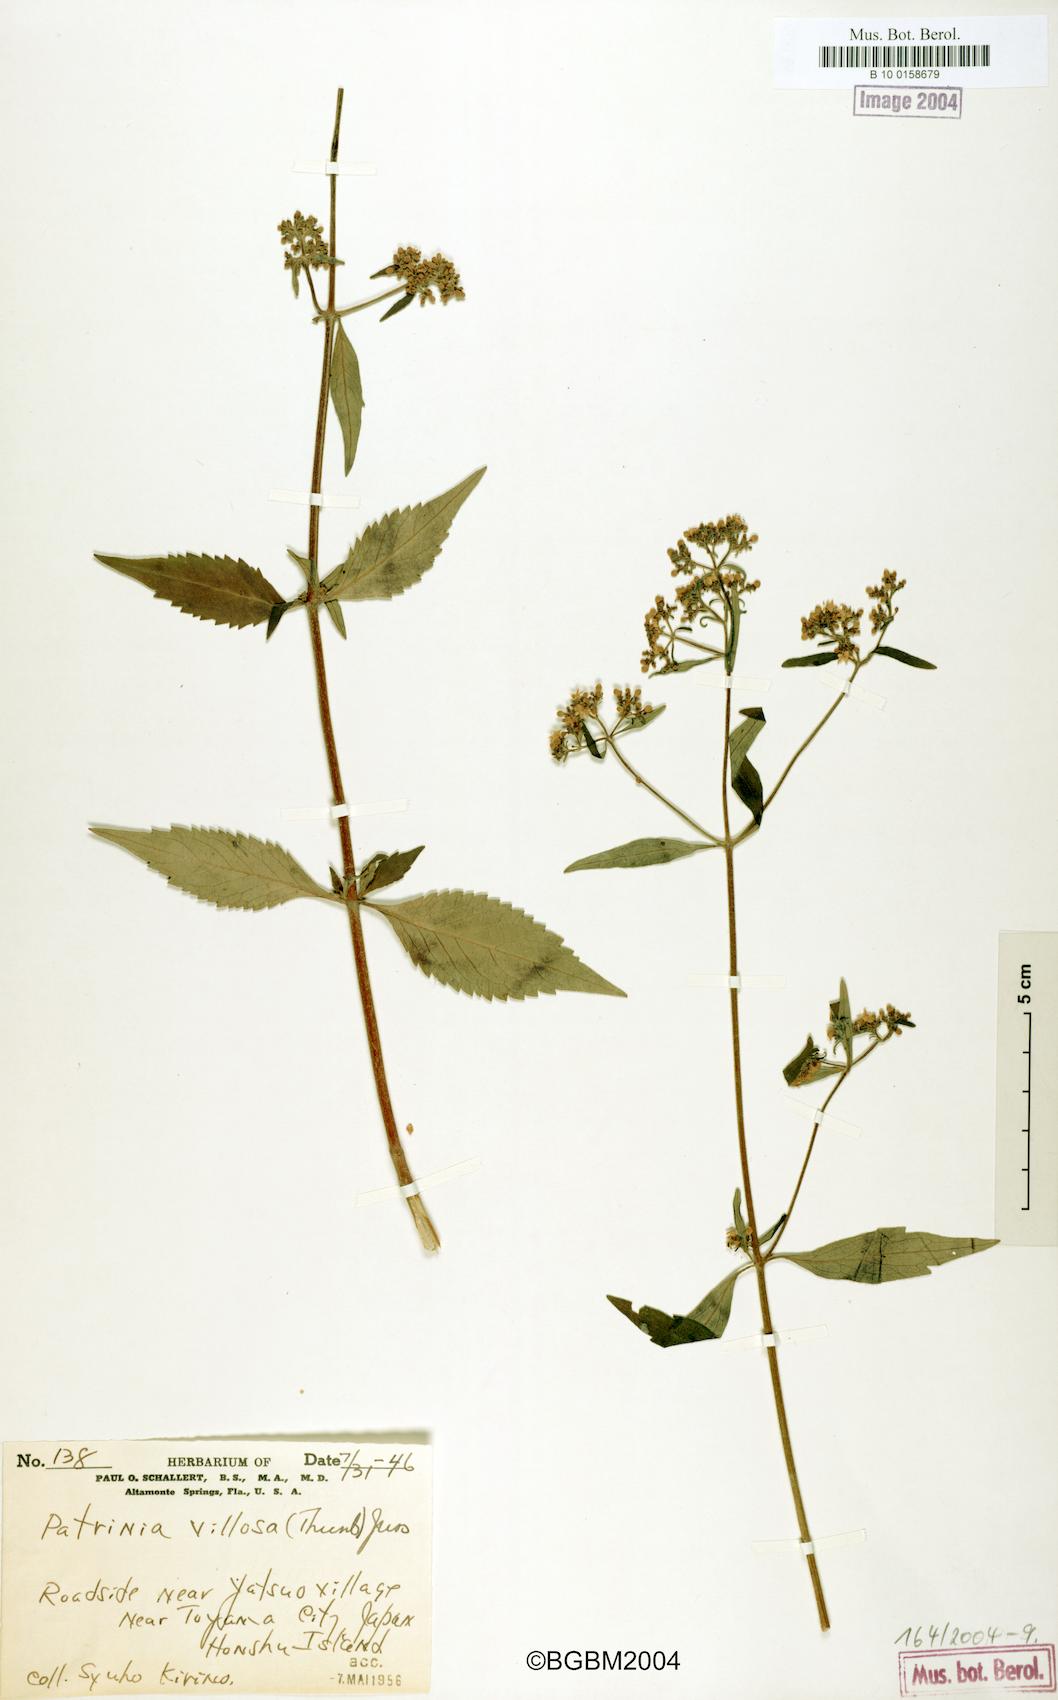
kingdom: Plantae
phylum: Tracheophyta
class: Magnoliopsida
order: Dipsacales
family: Caprifoliaceae
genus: Patrinia
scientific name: Patrinia villosa
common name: Patrinia
